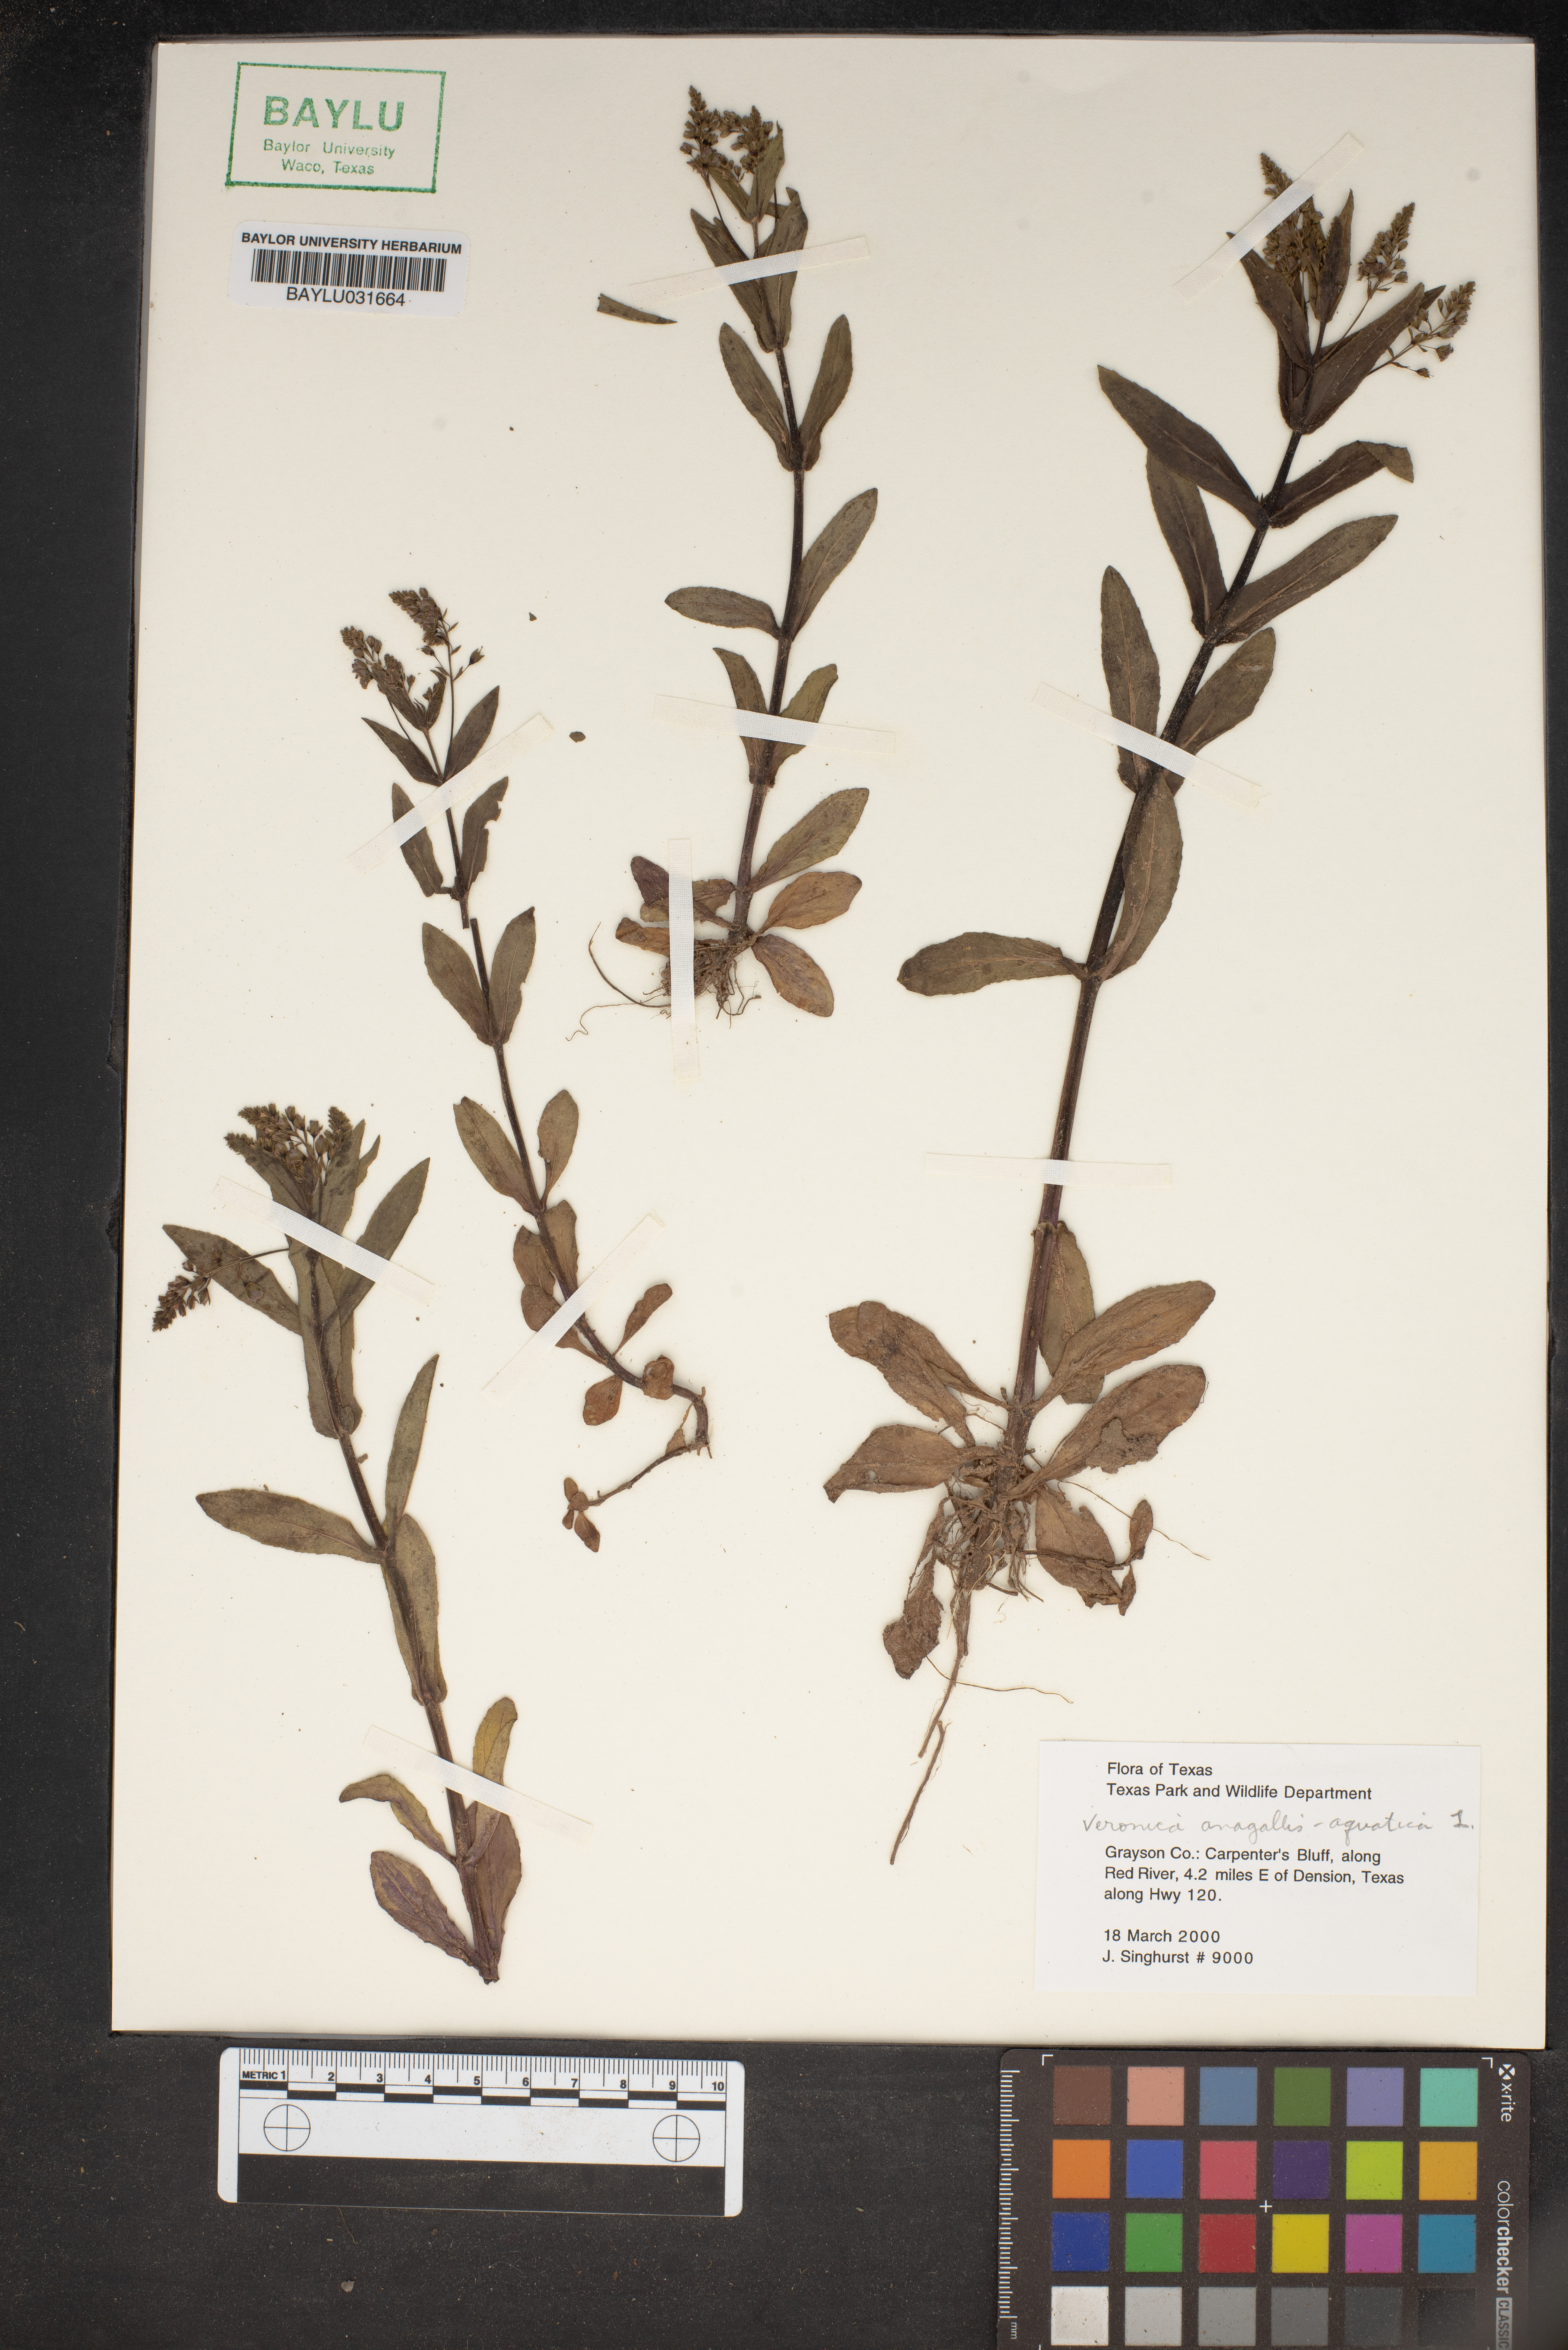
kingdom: Plantae
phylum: Tracheophyta
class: Magnoliopsida
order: Lamiales
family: Plantaginaceae
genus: Veronica
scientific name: Veronica aragonensis
